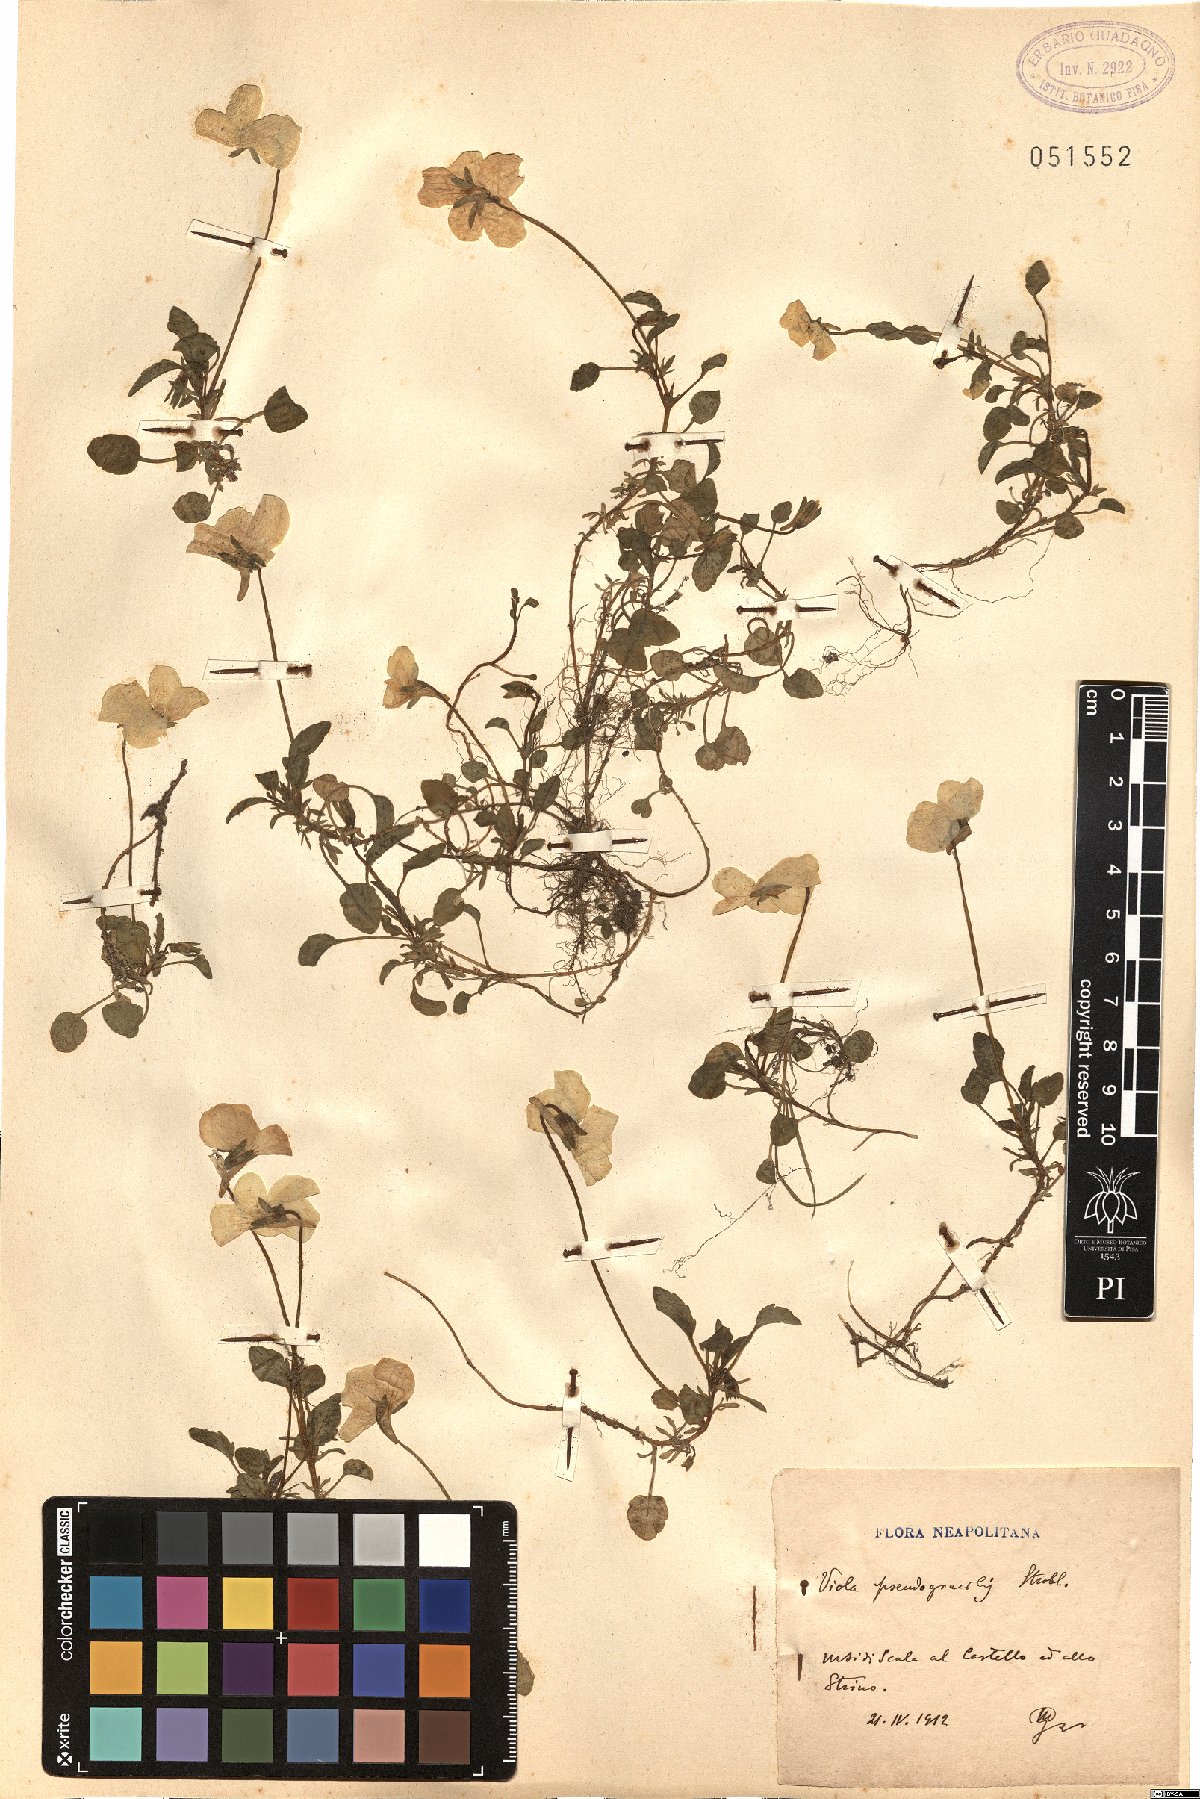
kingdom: Plantae
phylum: Tracheophyta
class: Magnoliopsida
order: Malpighiales
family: Violaceae
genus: Viola
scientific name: Viola pseudogracilis
